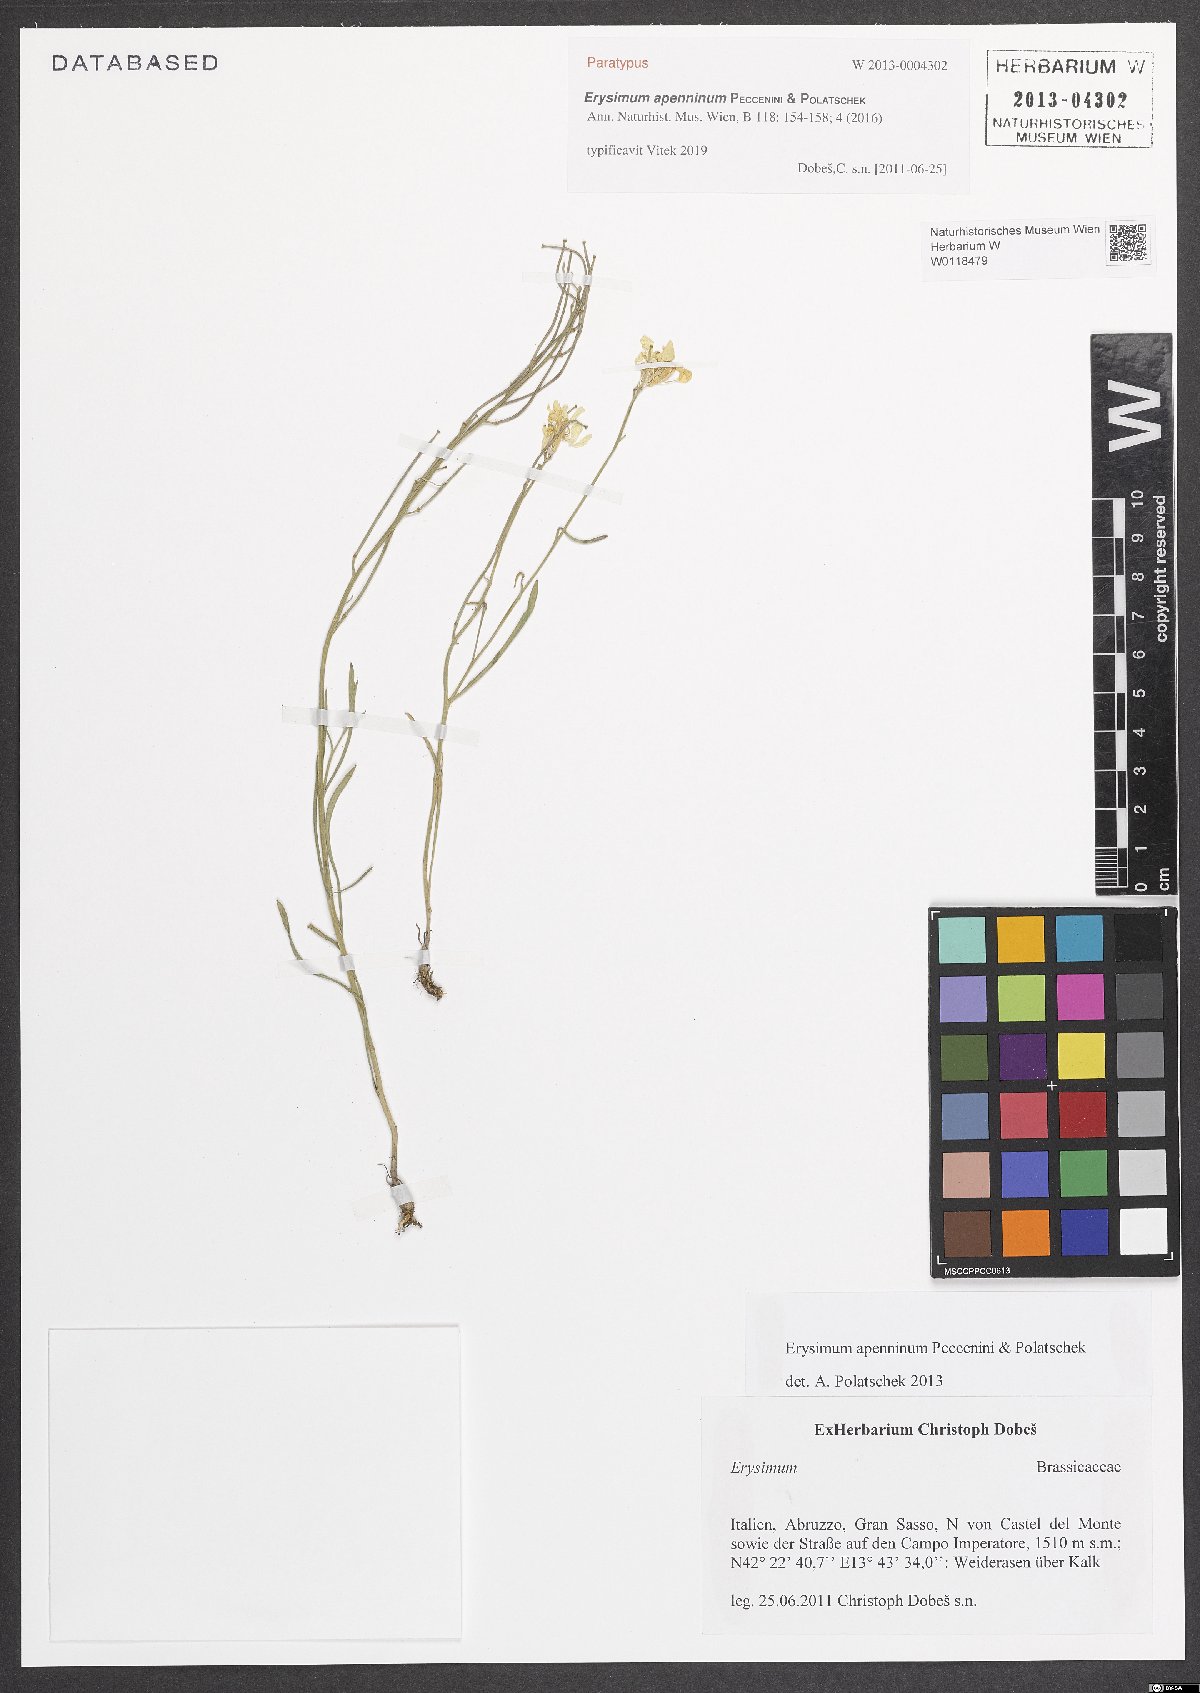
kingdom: Plantae
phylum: Tracheophyta
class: Magnoliopsida
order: Brassicales
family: Brassicaceae
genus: Erysimum
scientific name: Erysimum apenninum
